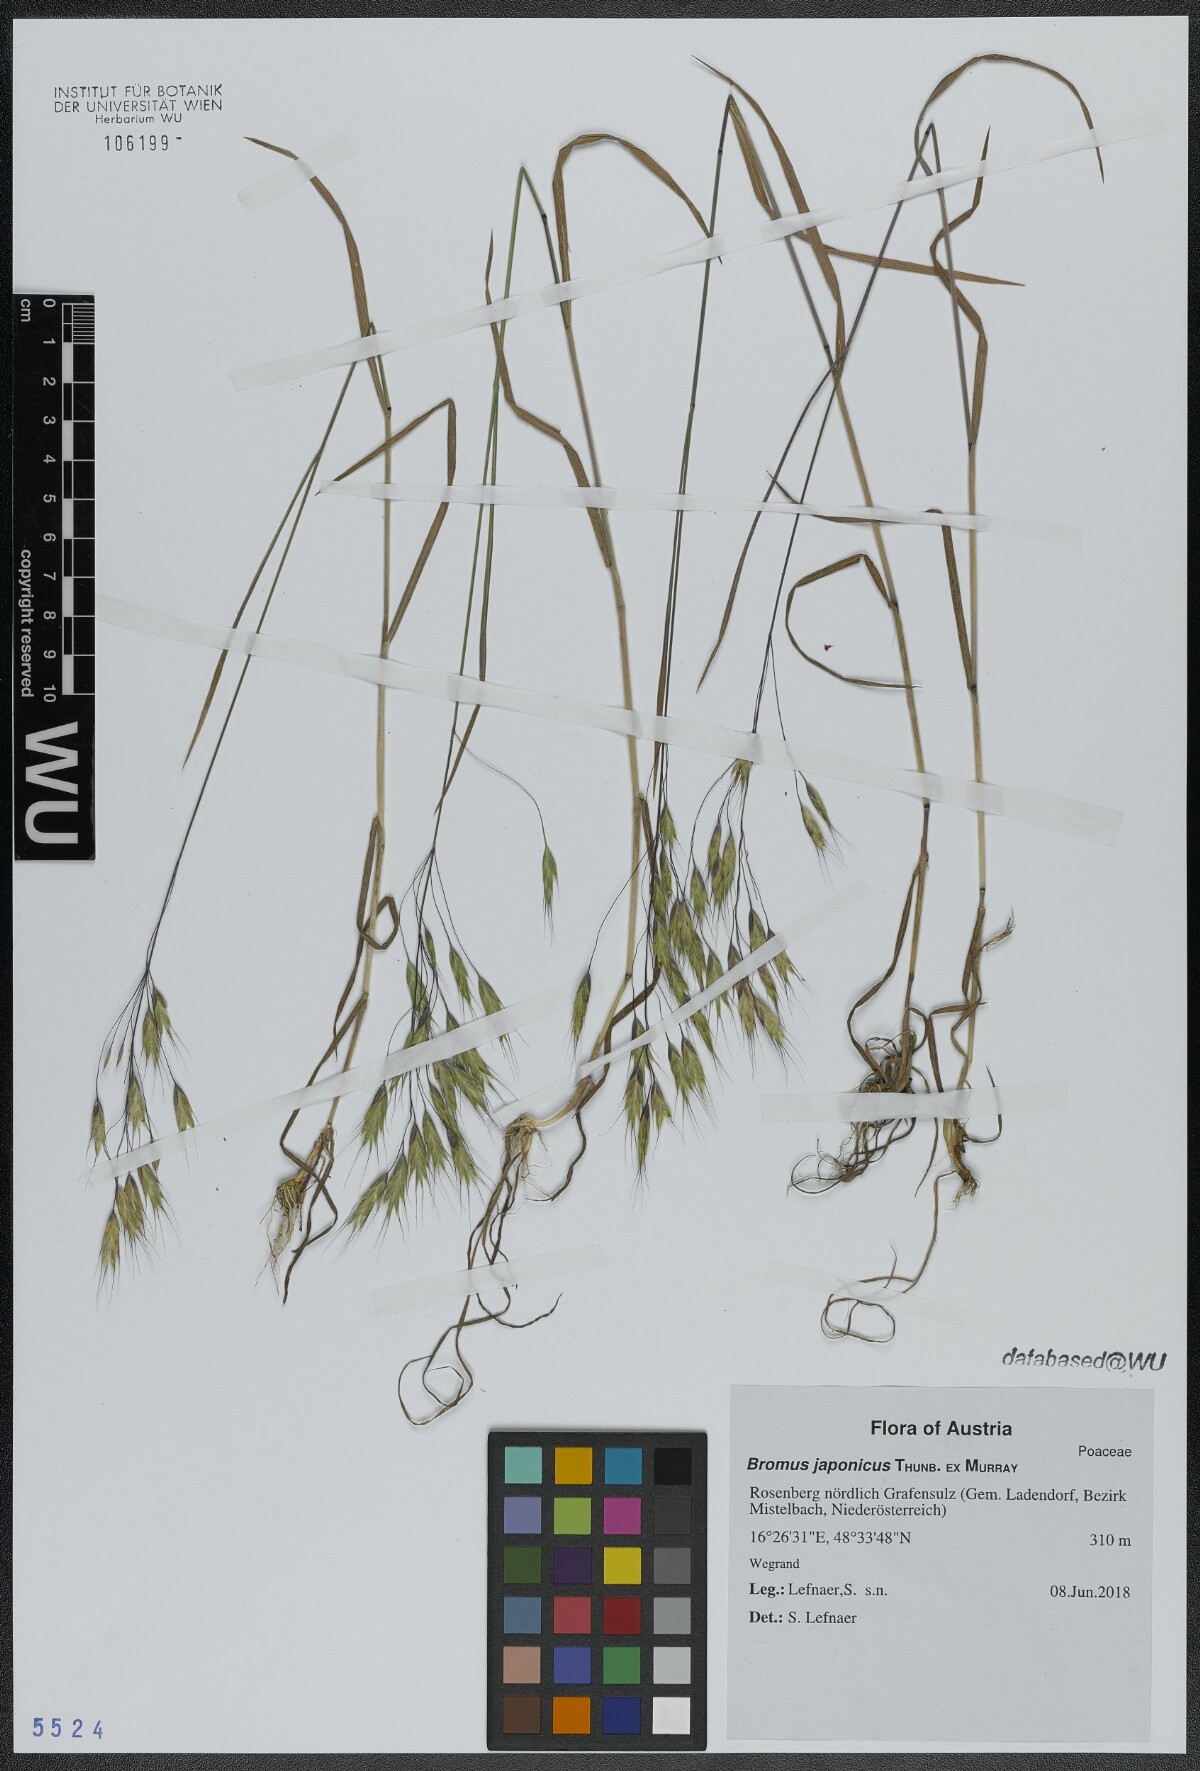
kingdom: Plantae
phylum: Tracheophyta
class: Liliopsida
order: Poales
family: Poaceae
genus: Bromus
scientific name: Bromus japonicus
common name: Japanese brome
